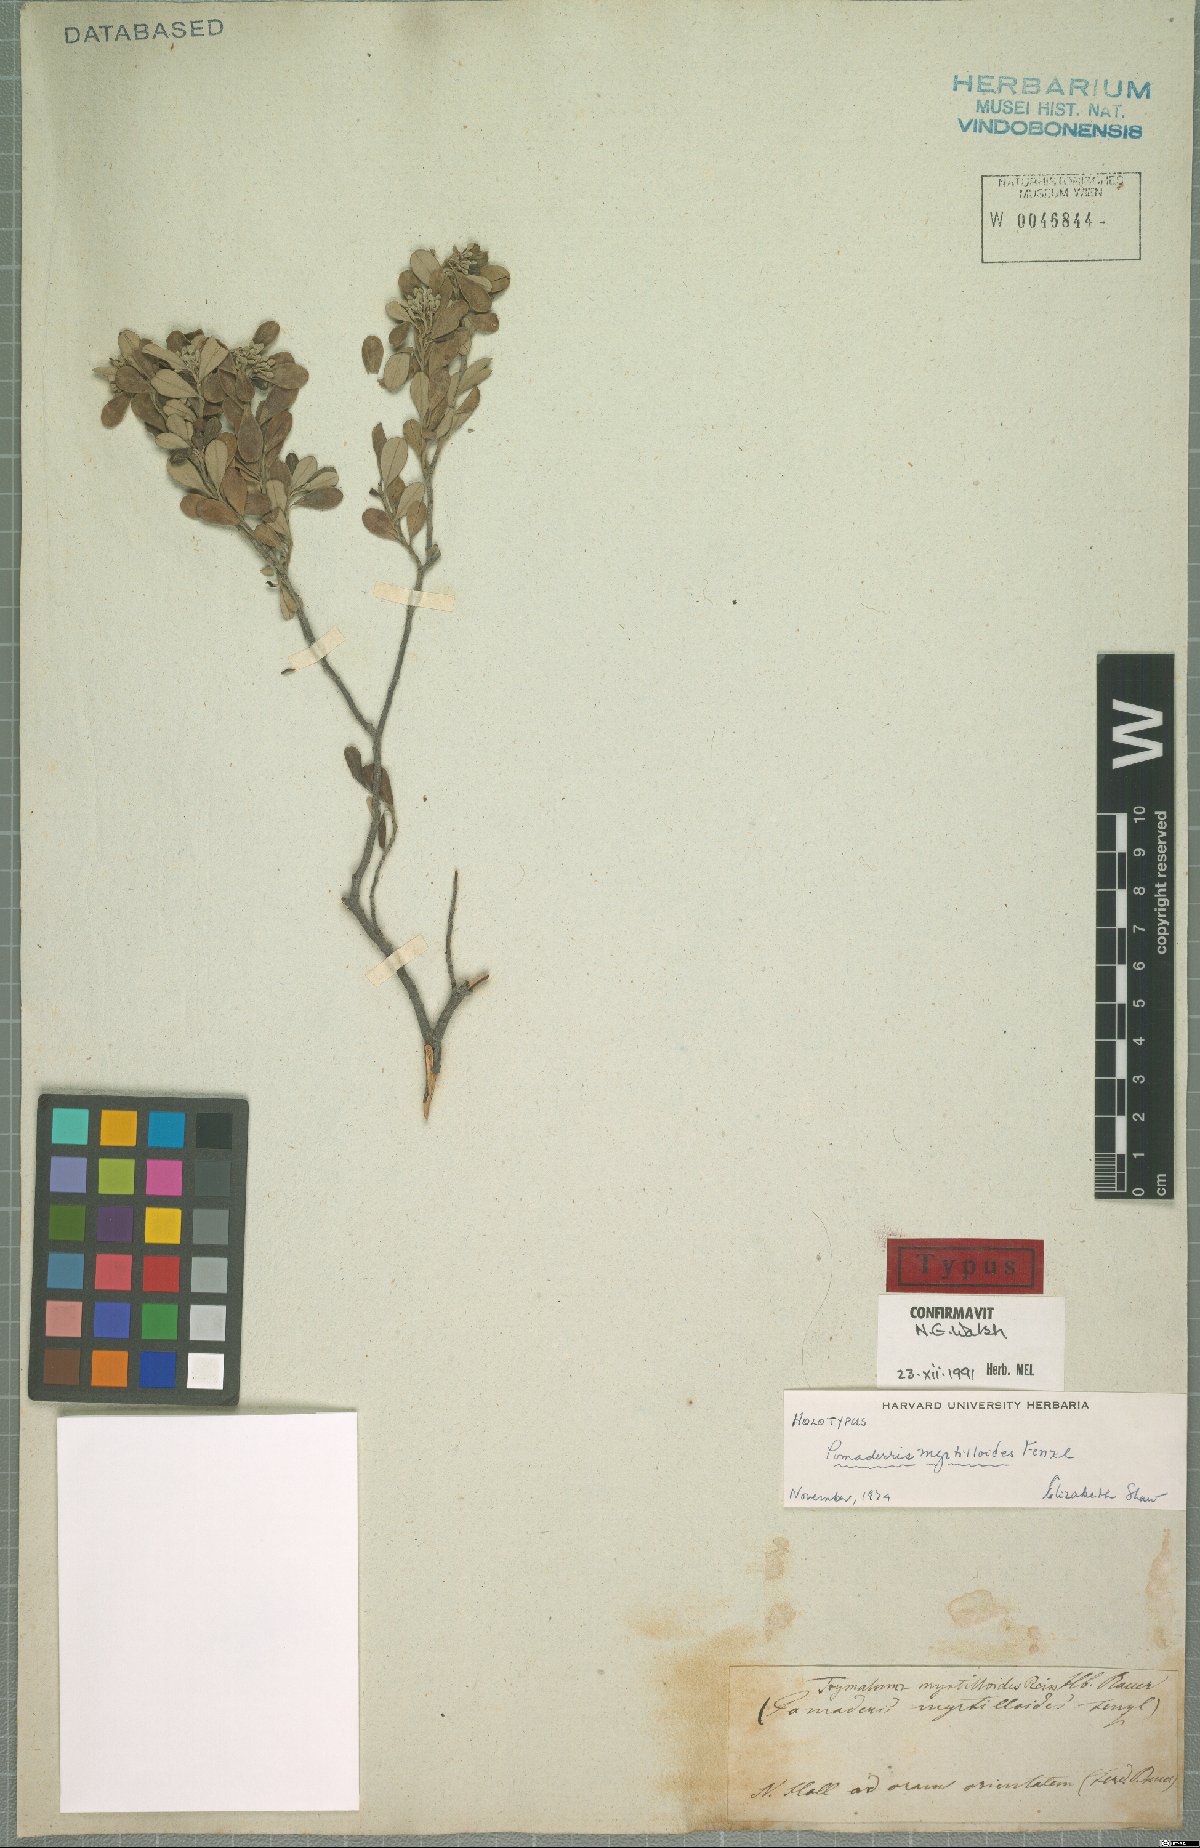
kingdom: Plantae
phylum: Tracheophyta
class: Magnoliopsida
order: Rosales
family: Rhamnaceae
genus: Pomaderris
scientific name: Pomaderris myrtilloides
